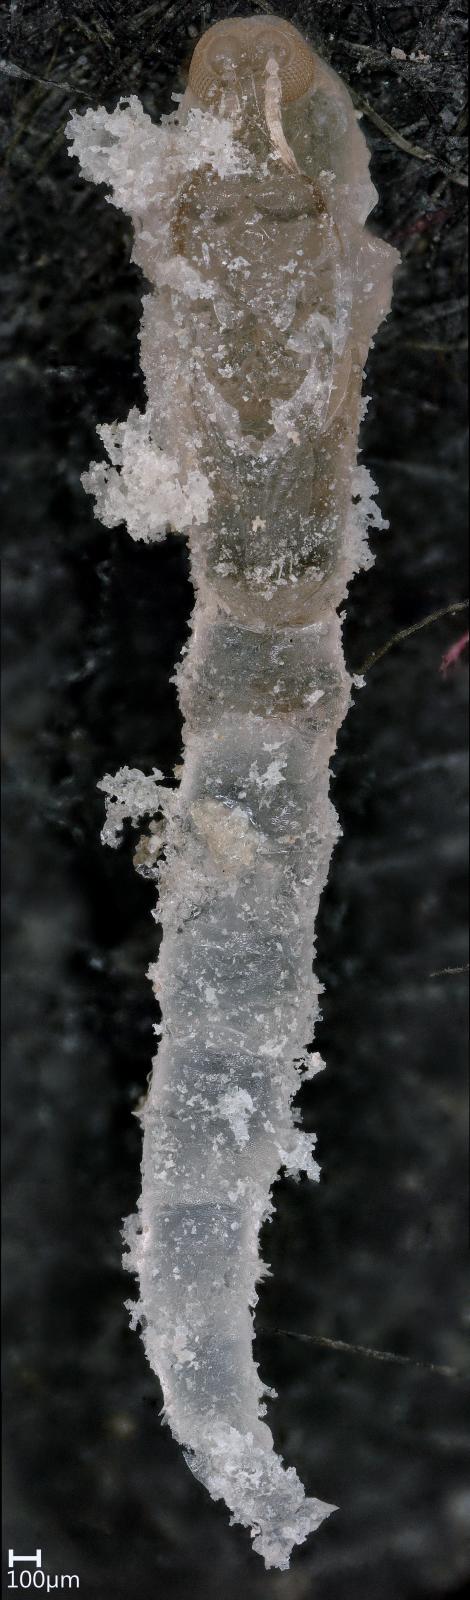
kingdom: Animalia
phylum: Arthropoda
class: Insecta
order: Diptera
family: Ceratopogonidae
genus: Dasyhelea
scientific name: Dasyhelea
